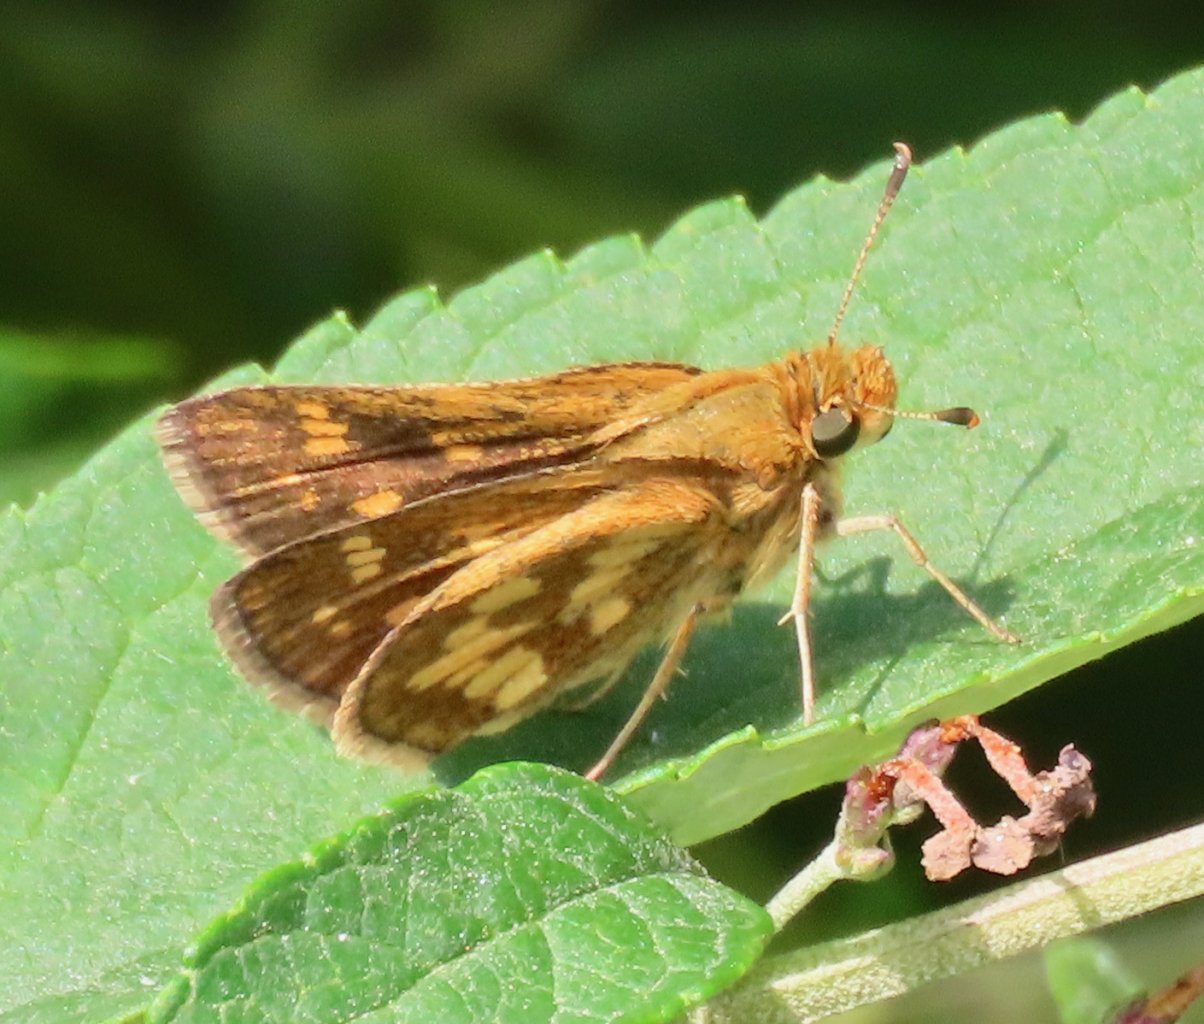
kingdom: Animalia
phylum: Arthropoda
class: Insecta
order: Lepidoptera
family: Hesperiidae
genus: Polites
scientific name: Polites coras
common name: Peck's Skipper
